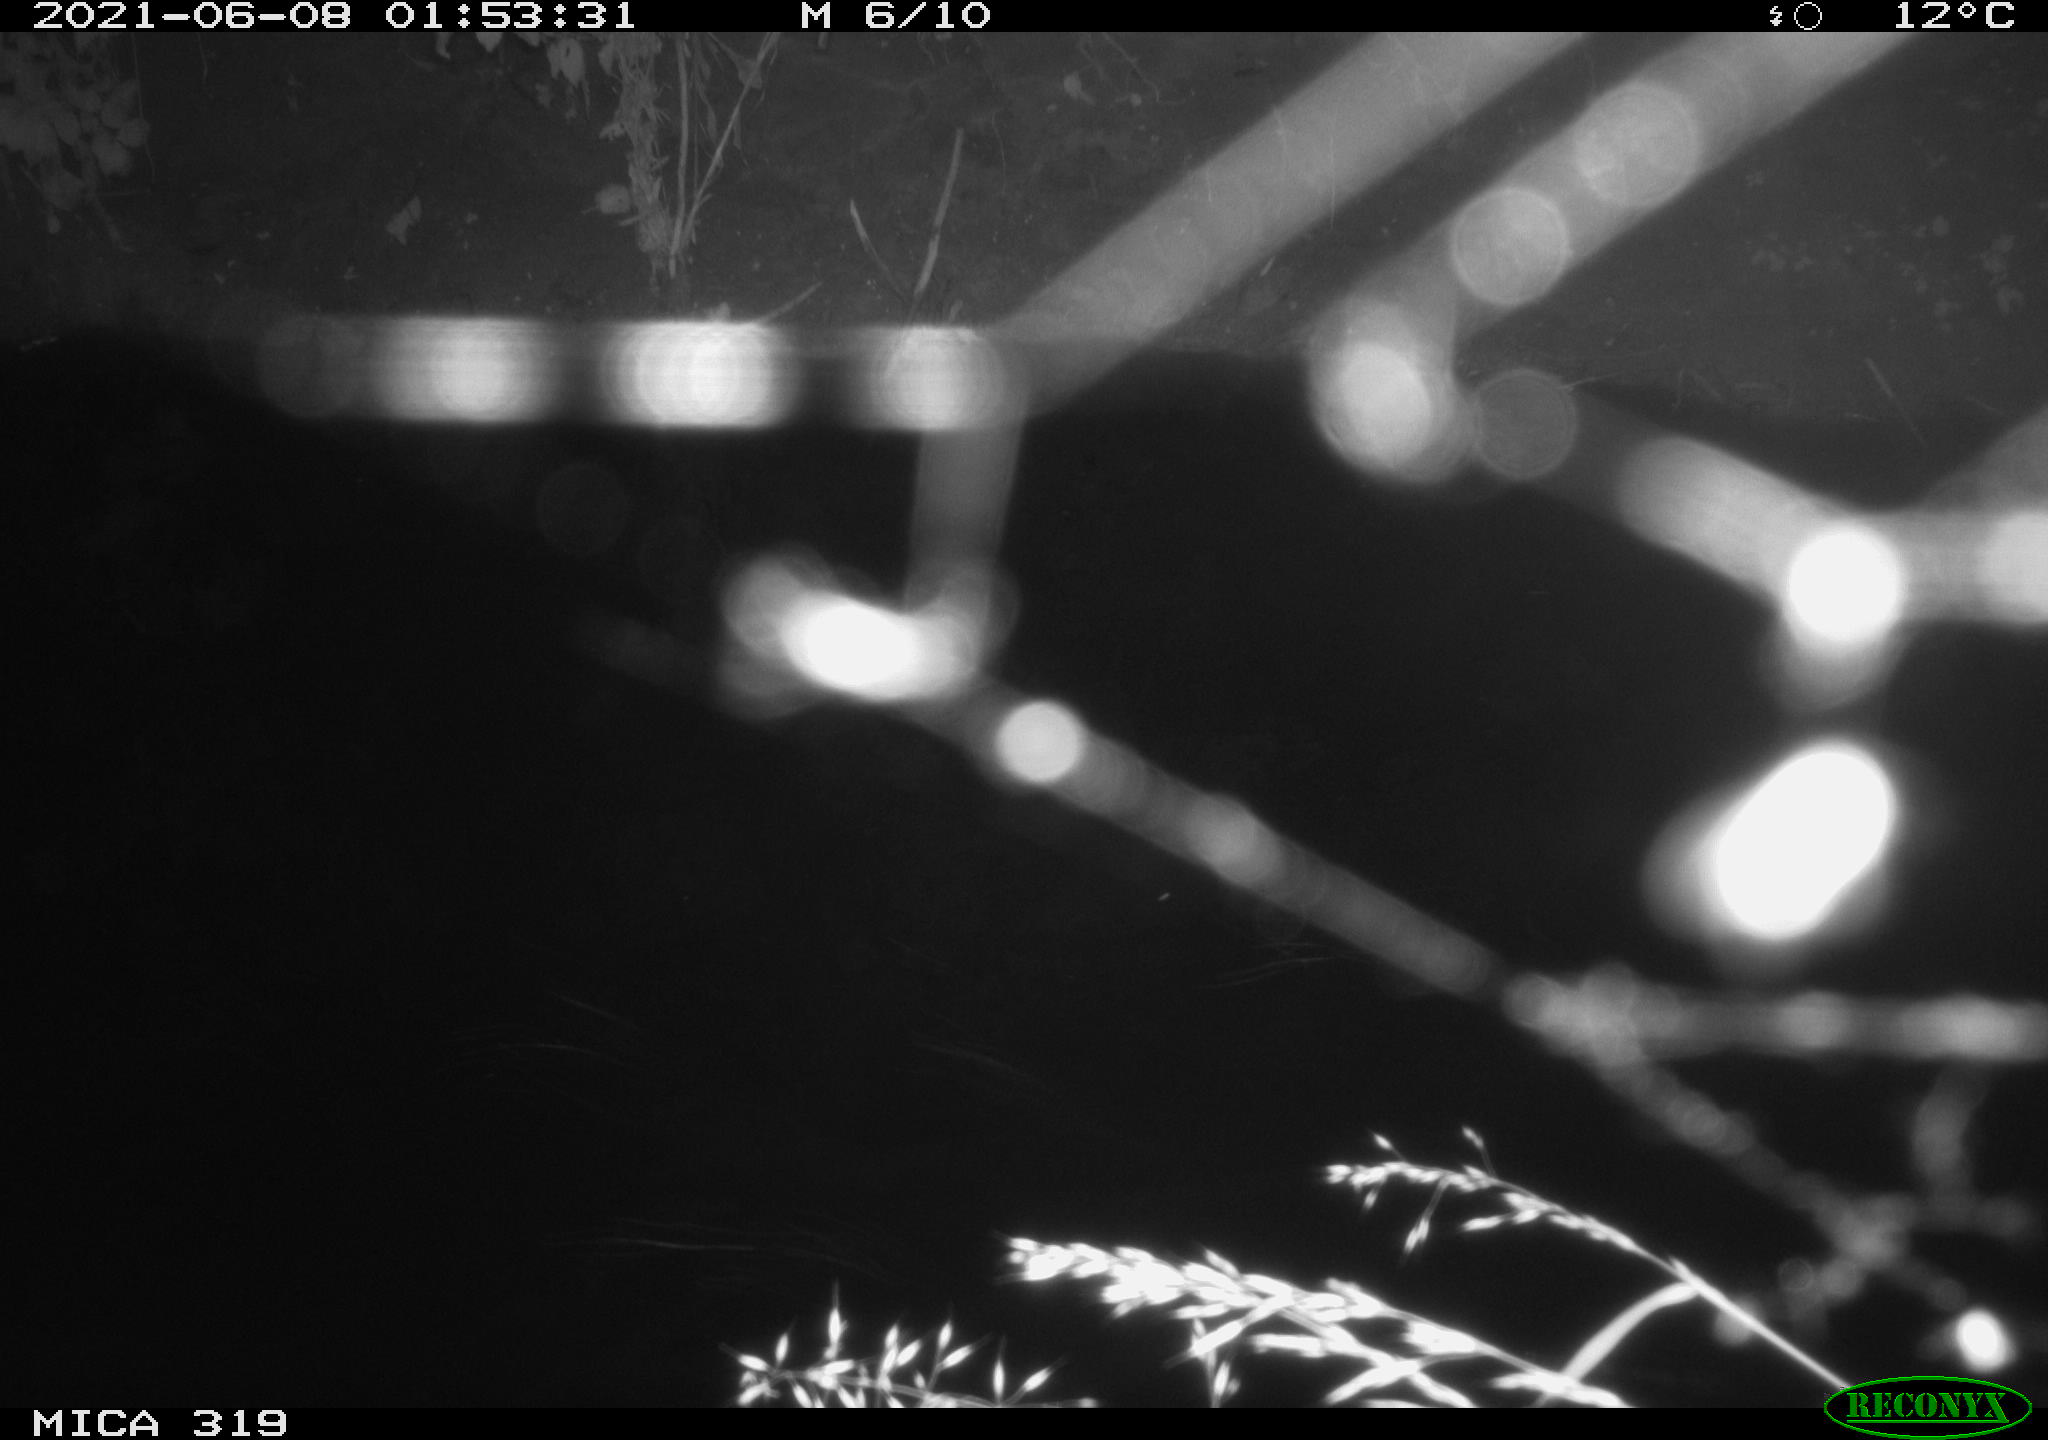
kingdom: Animalia
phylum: Chordata
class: Aves
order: Anseriformes
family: Anatidae
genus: Anas
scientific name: Anas platyrhynchos
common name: Mallard
